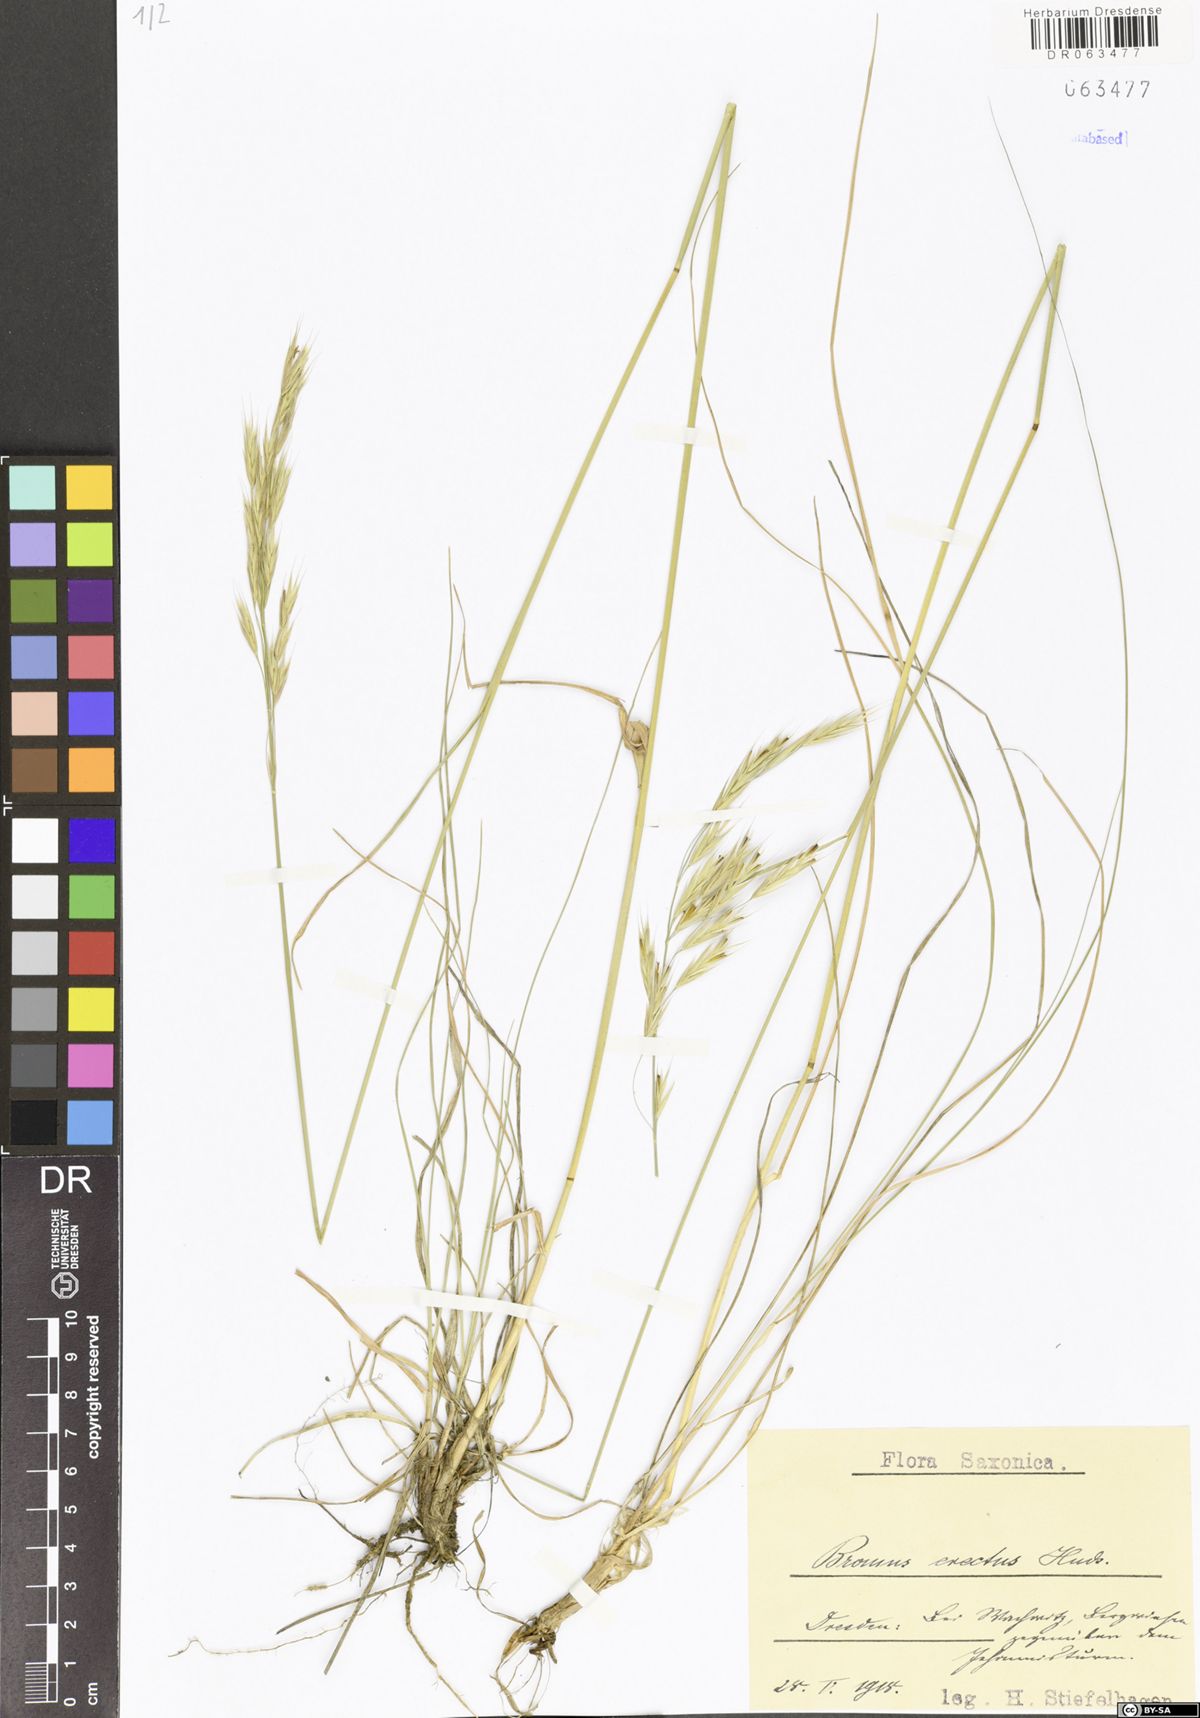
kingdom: Plantae
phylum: Tracheophyta
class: Liliopsida
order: Poales
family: Poaceae
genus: Bromus
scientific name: Bromus erectus
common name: Erect brome
